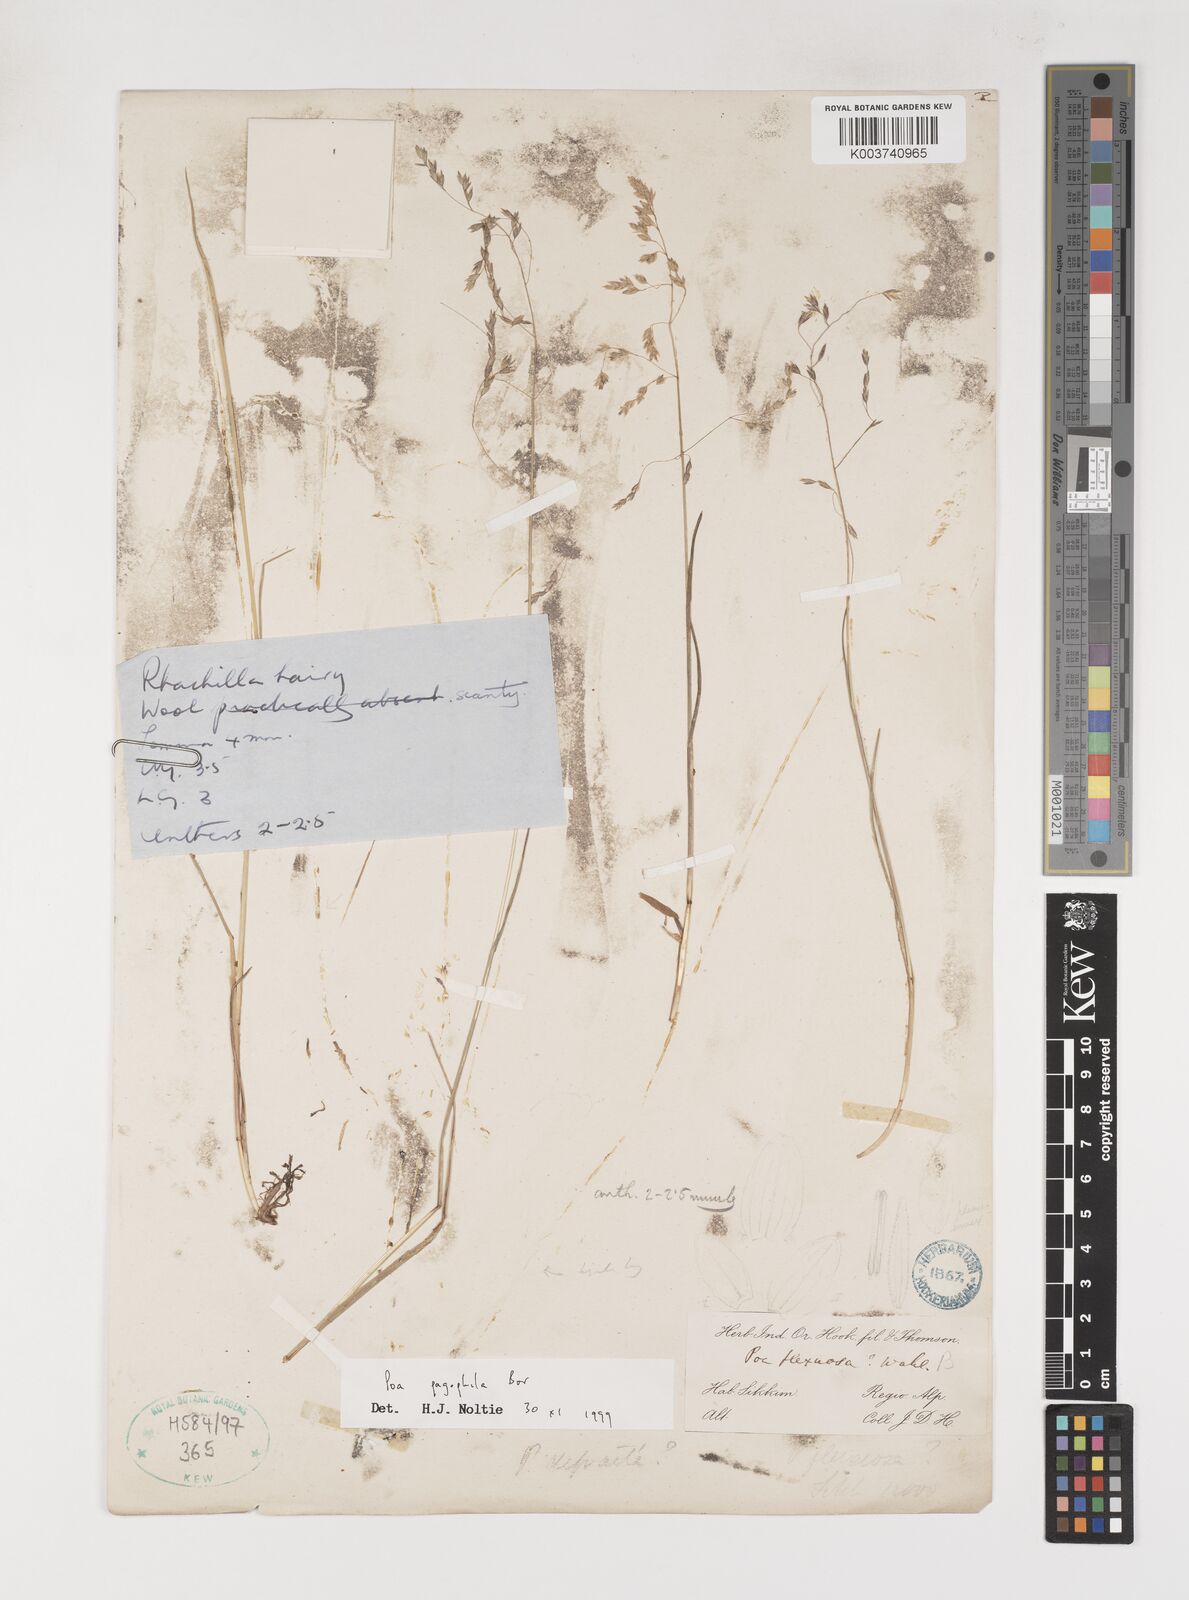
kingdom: Plantae
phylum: Tracheophyta
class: Liliopsida
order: Poales
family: Poaceae
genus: Poa
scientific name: Poa pagophila
